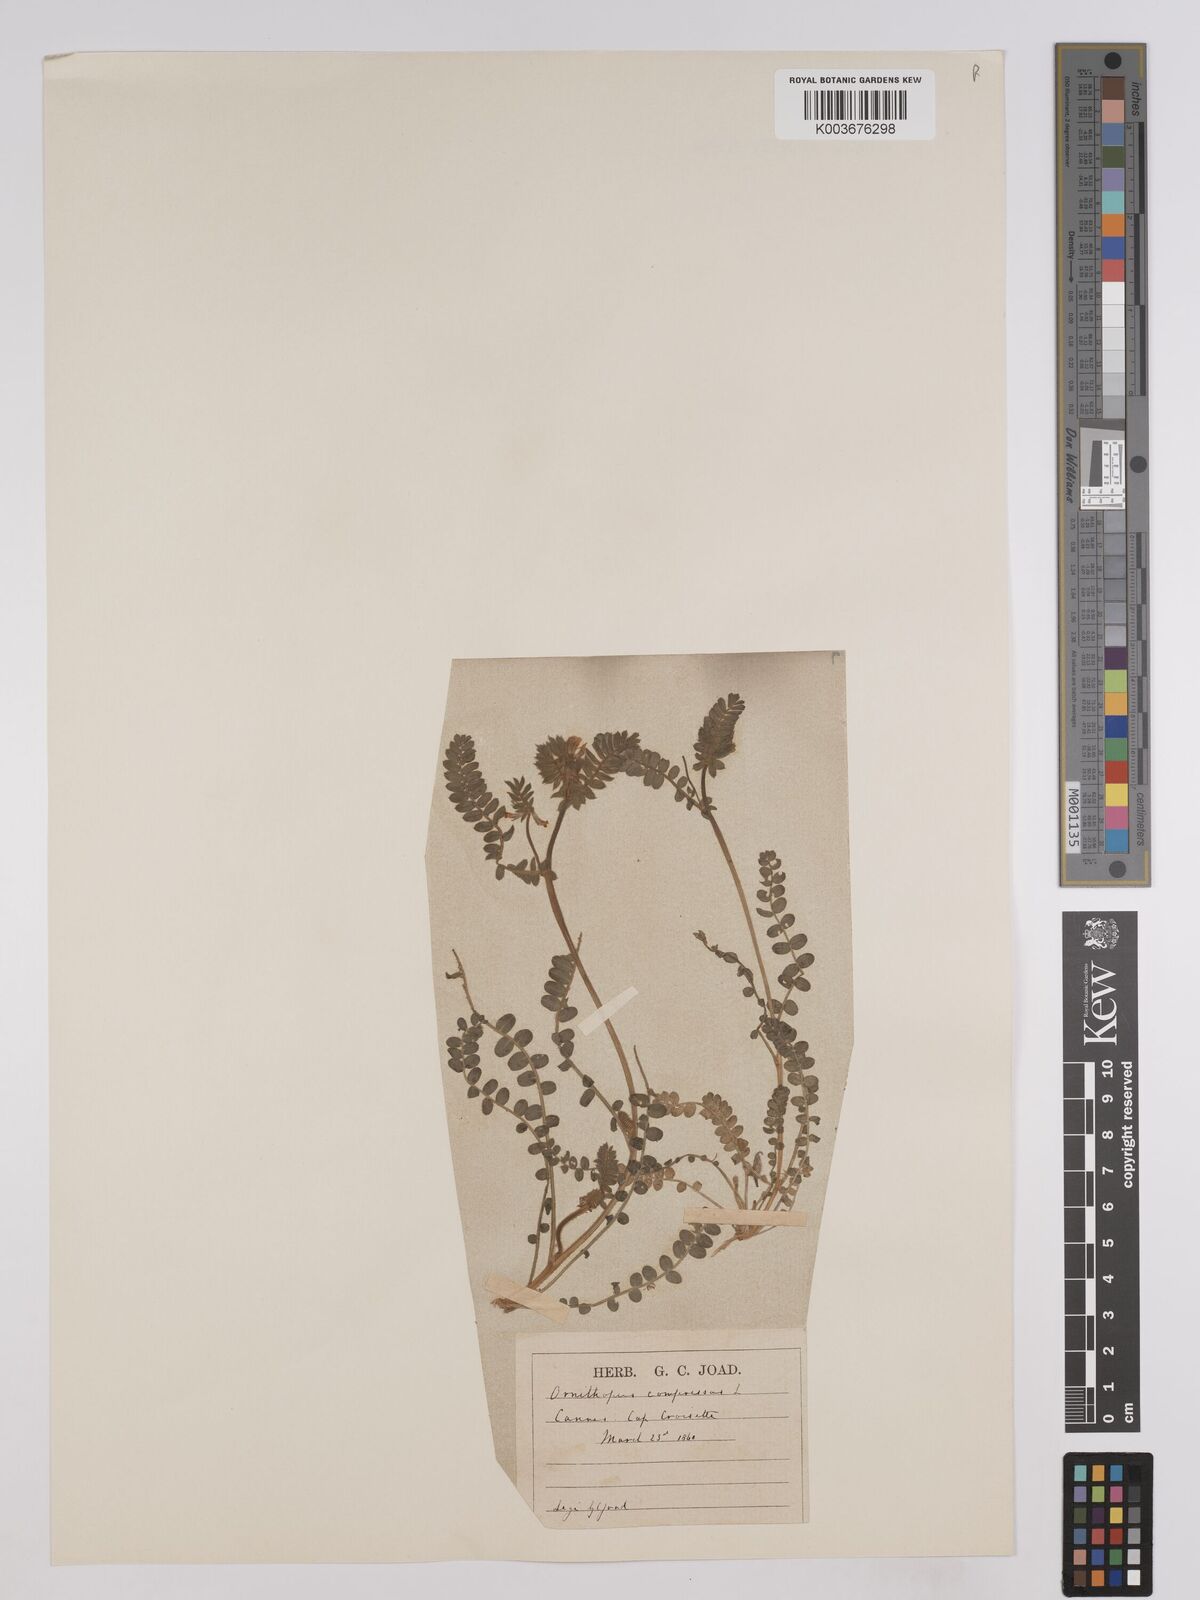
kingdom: Plantae
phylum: Tracheophyta
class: Magnoliopsida
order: Fabales
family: Fabaceae
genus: Ornithopus
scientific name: Ornithopus compressus
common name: Yellow serradella
